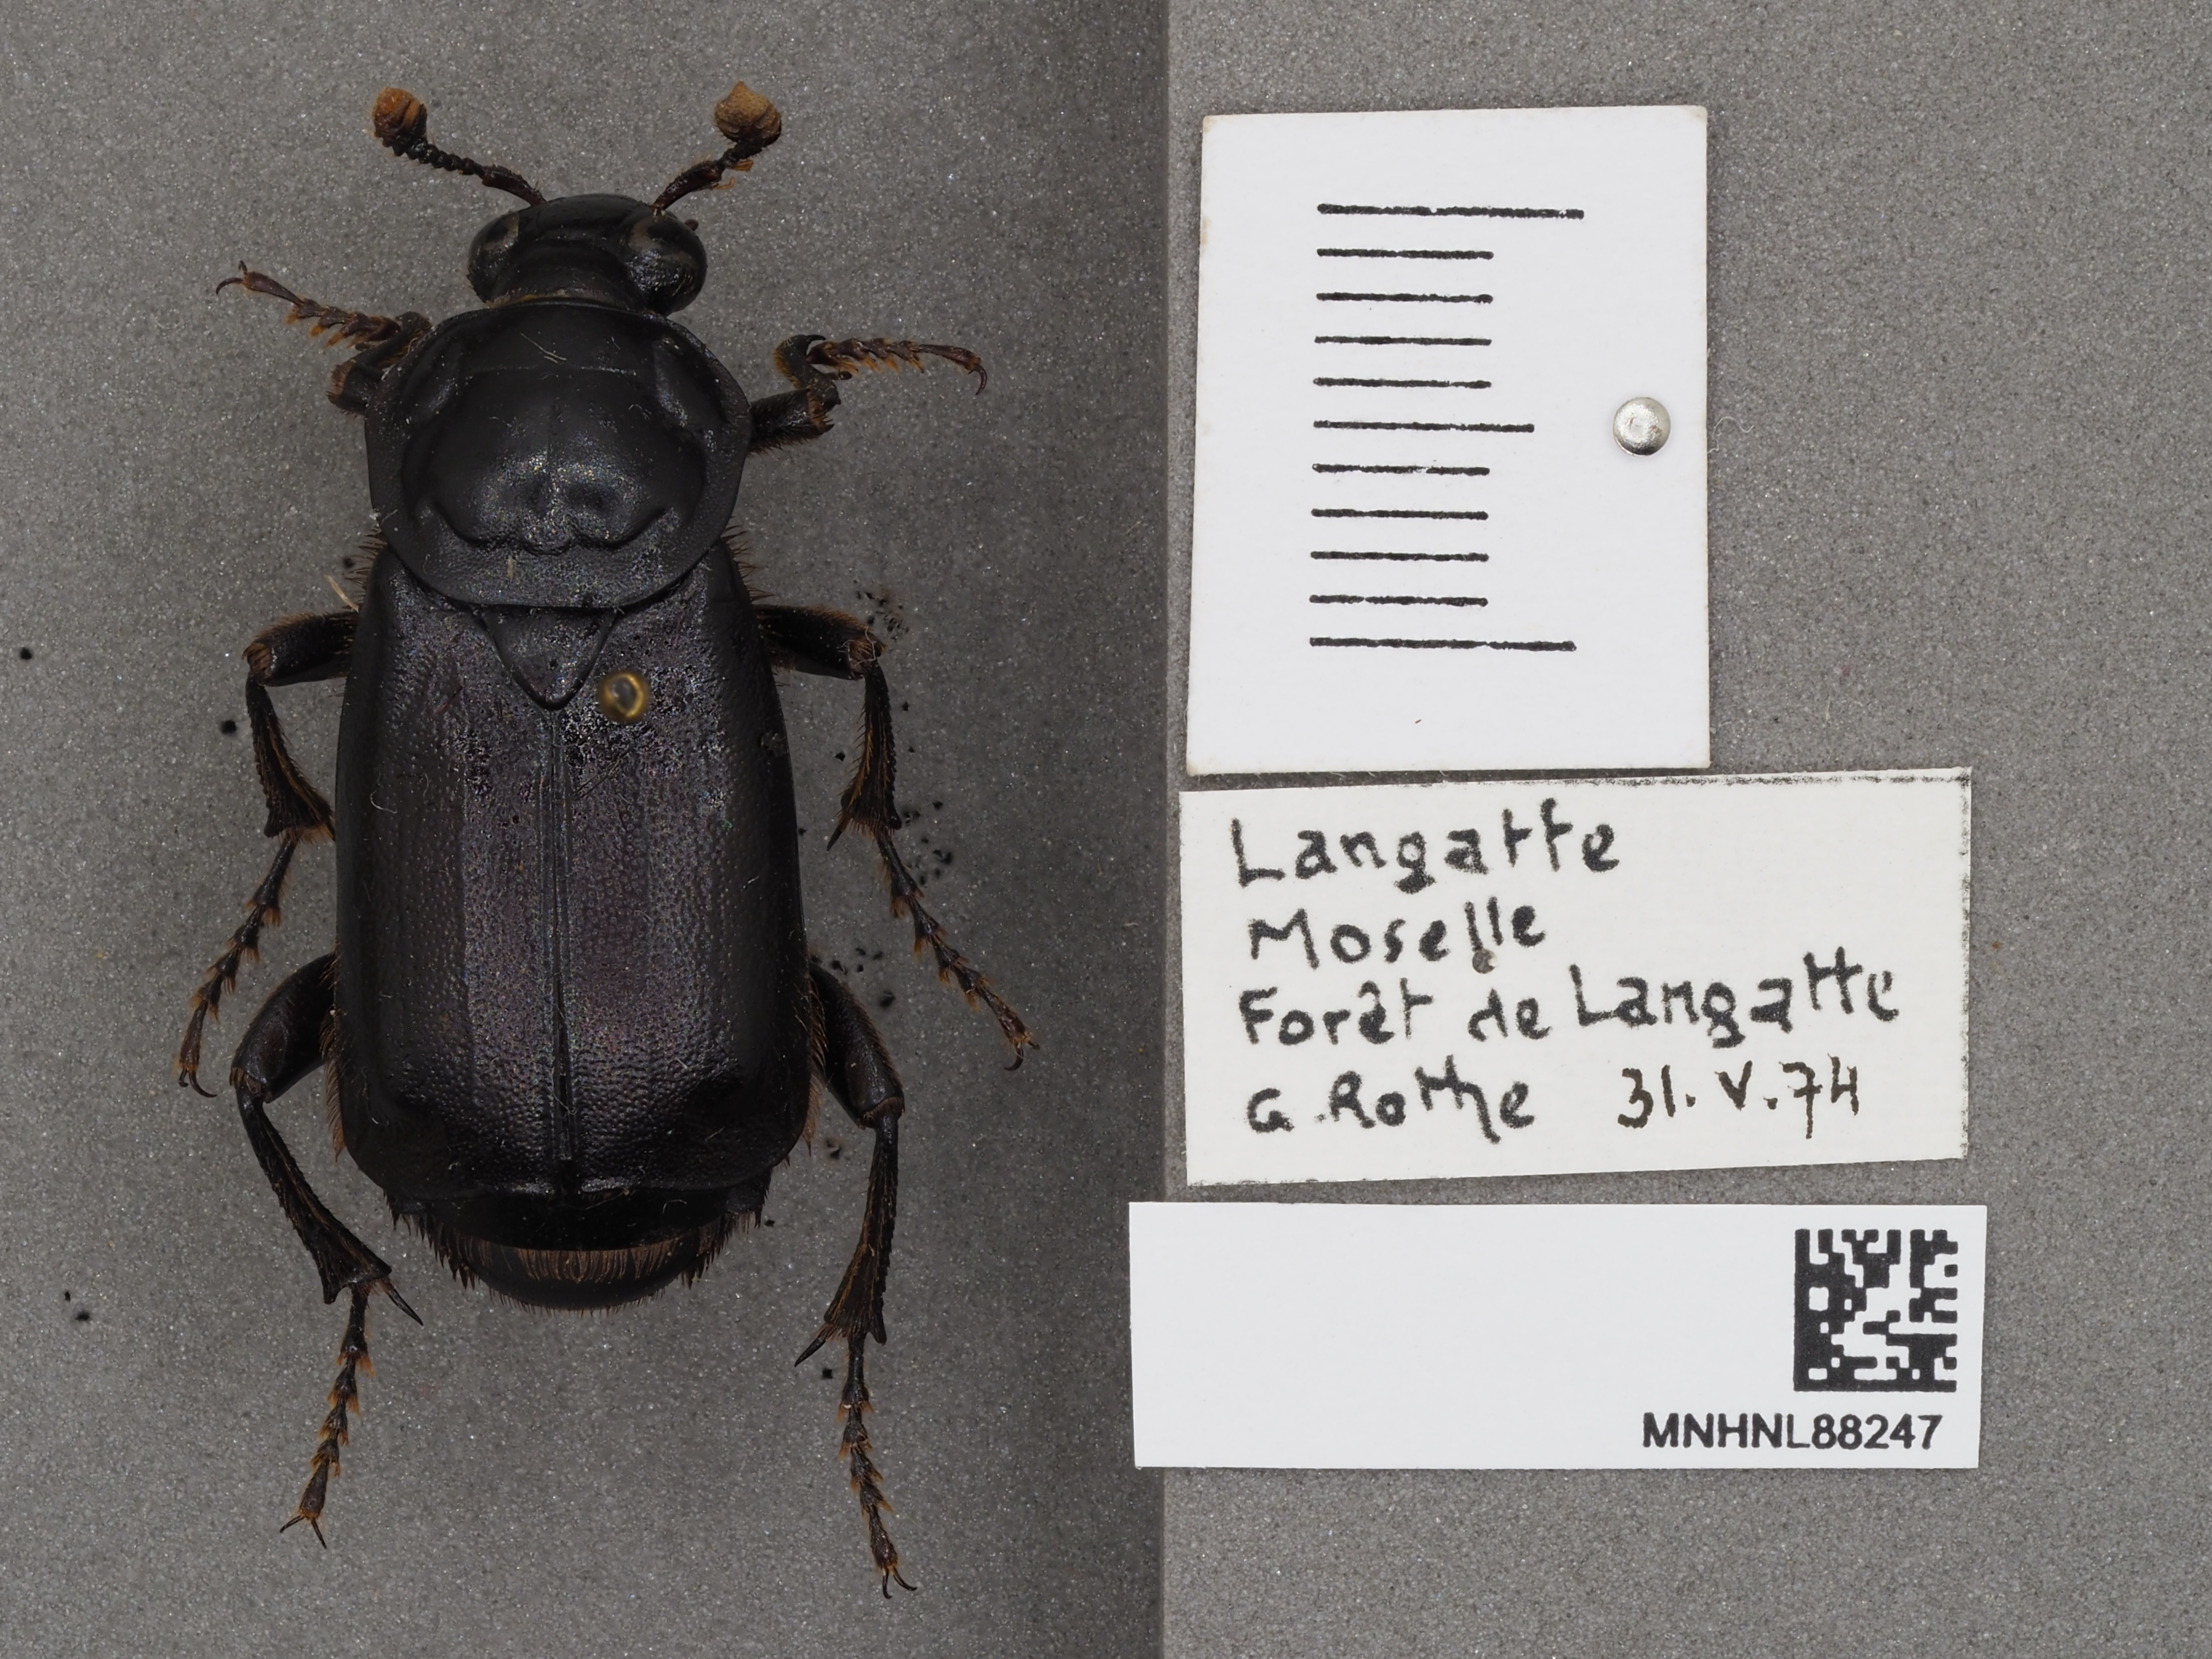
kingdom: Animalia
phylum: Arthropoda
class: Insecta
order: Coleoptera
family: Staphylinidae
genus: Nicrophorus
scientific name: Nicrophorus humator
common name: Black sexton beetle
